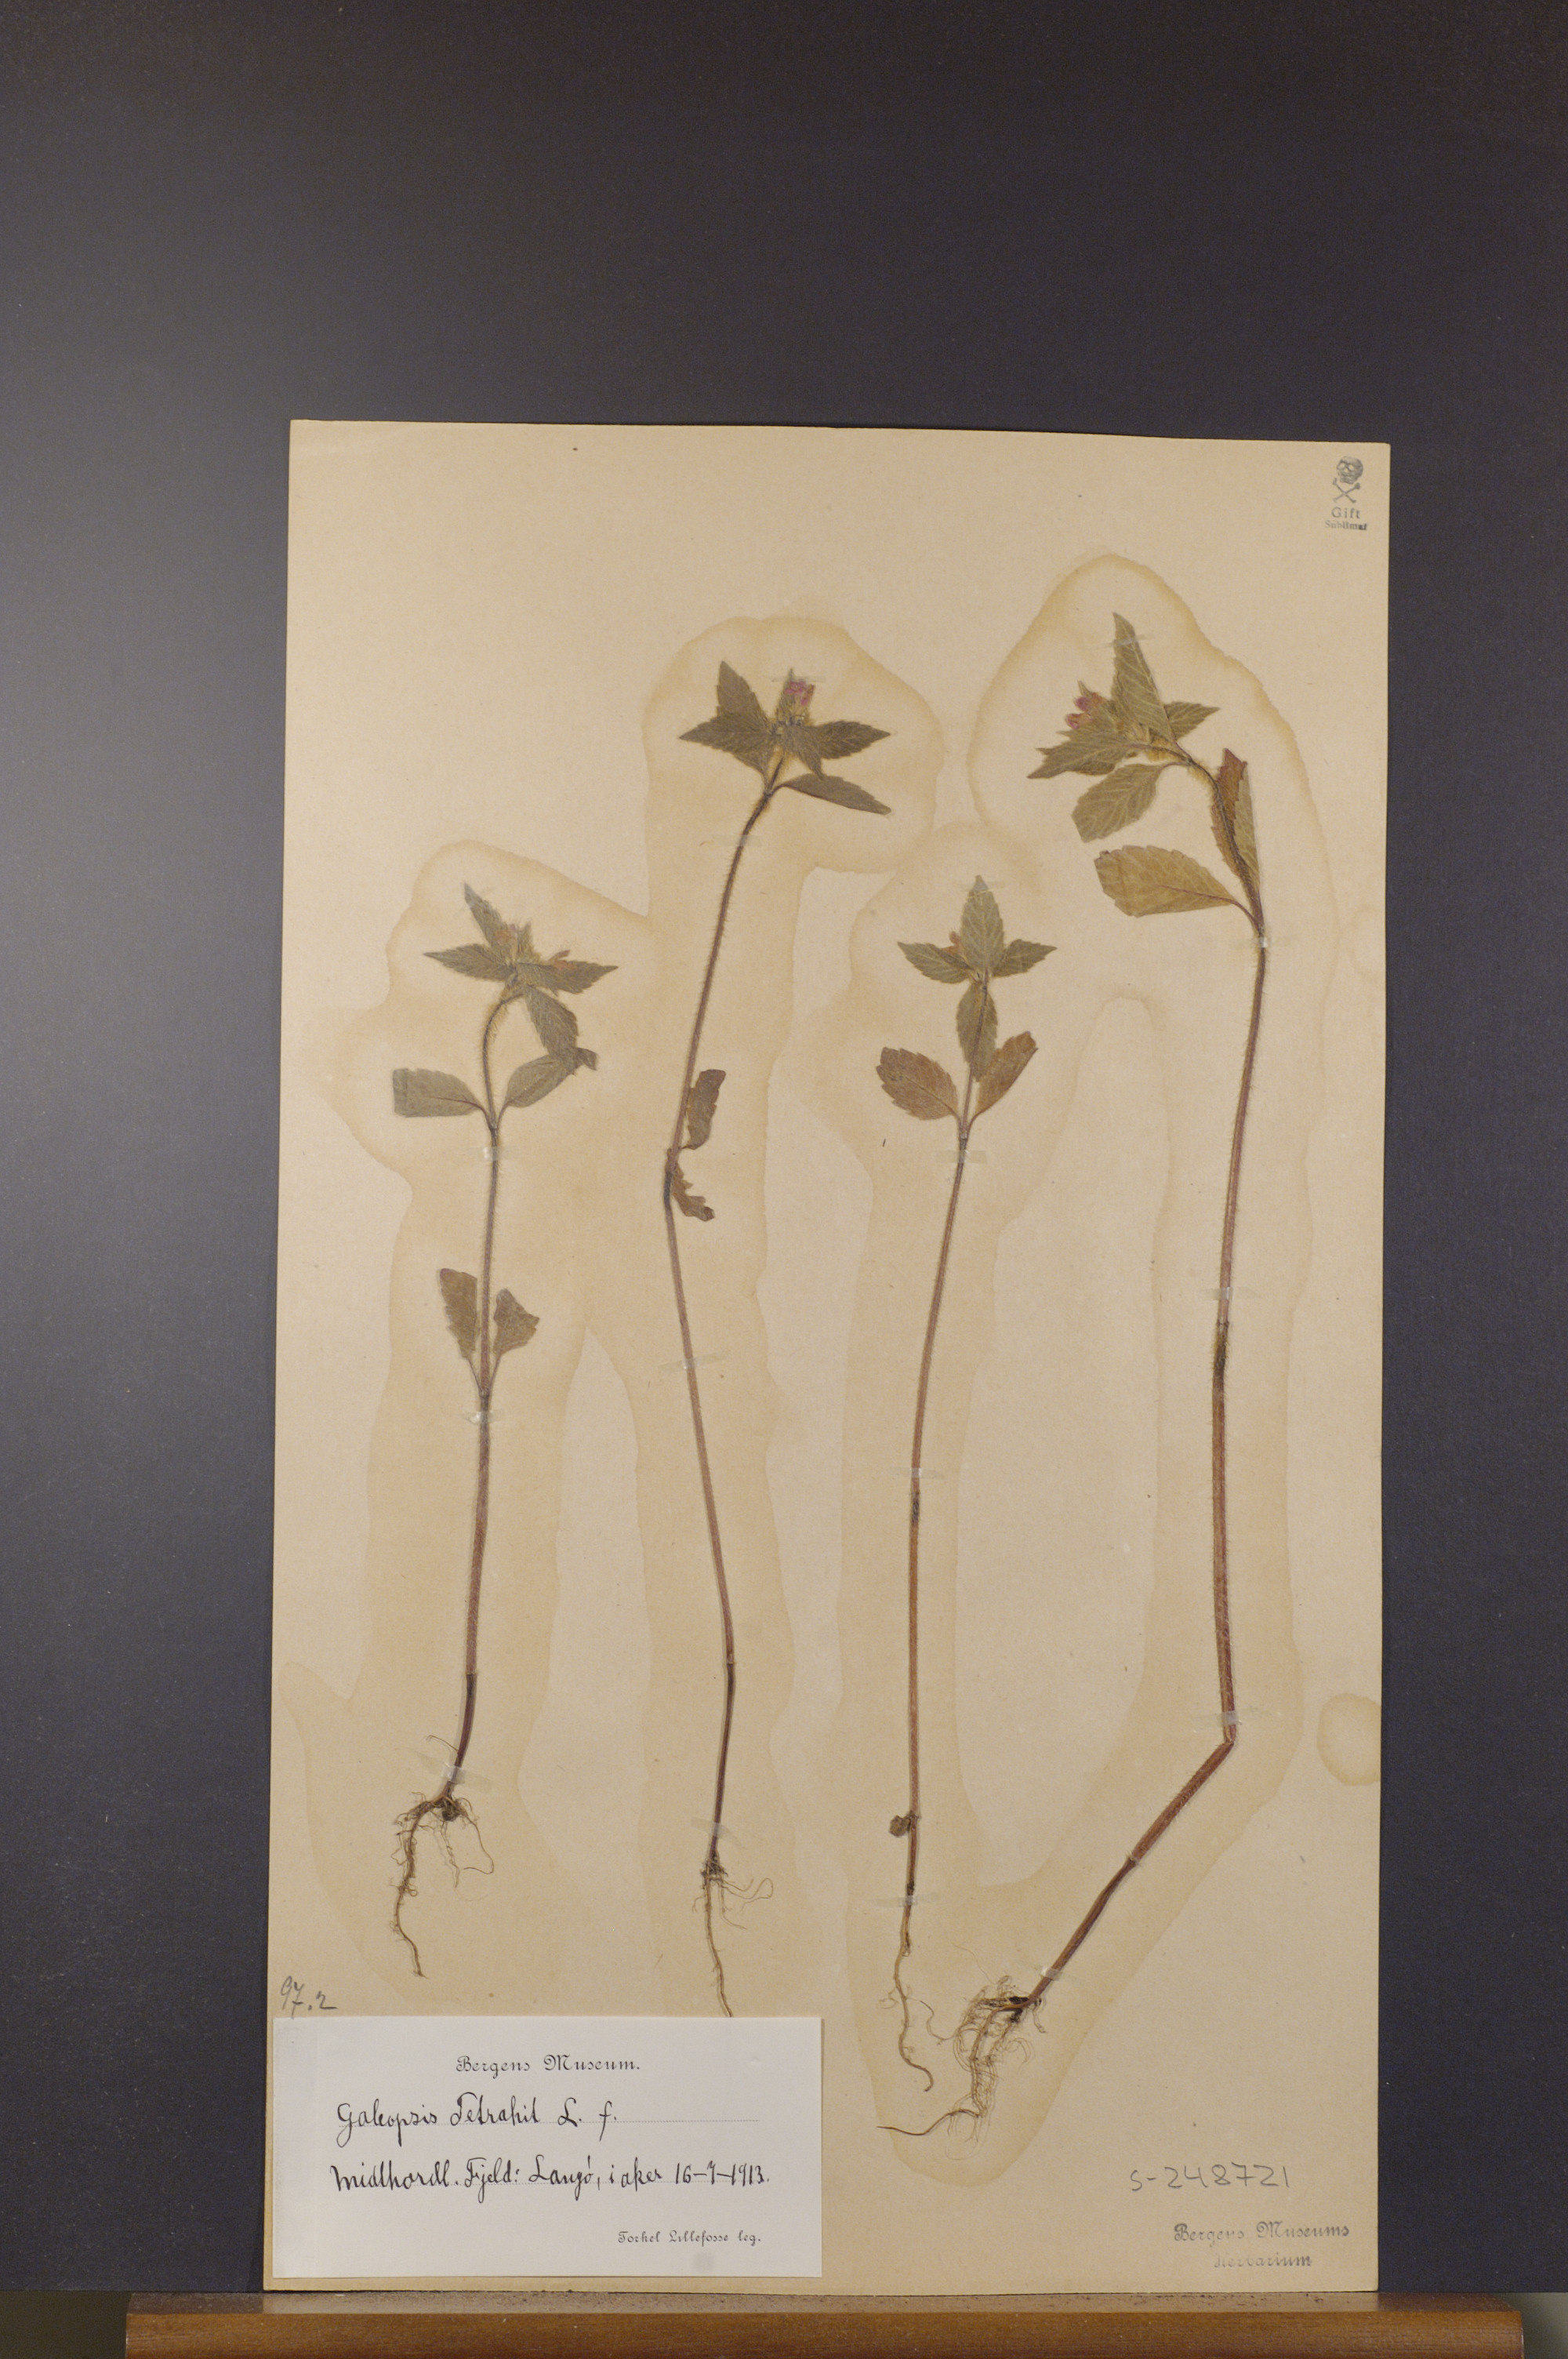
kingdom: Plantae
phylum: Tracheophyta
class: Magnoliopsida
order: Lamiales
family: Lamiaceae
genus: Galeopsis
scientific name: Galeopsis tetrahit
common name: Common hemp-nettle
